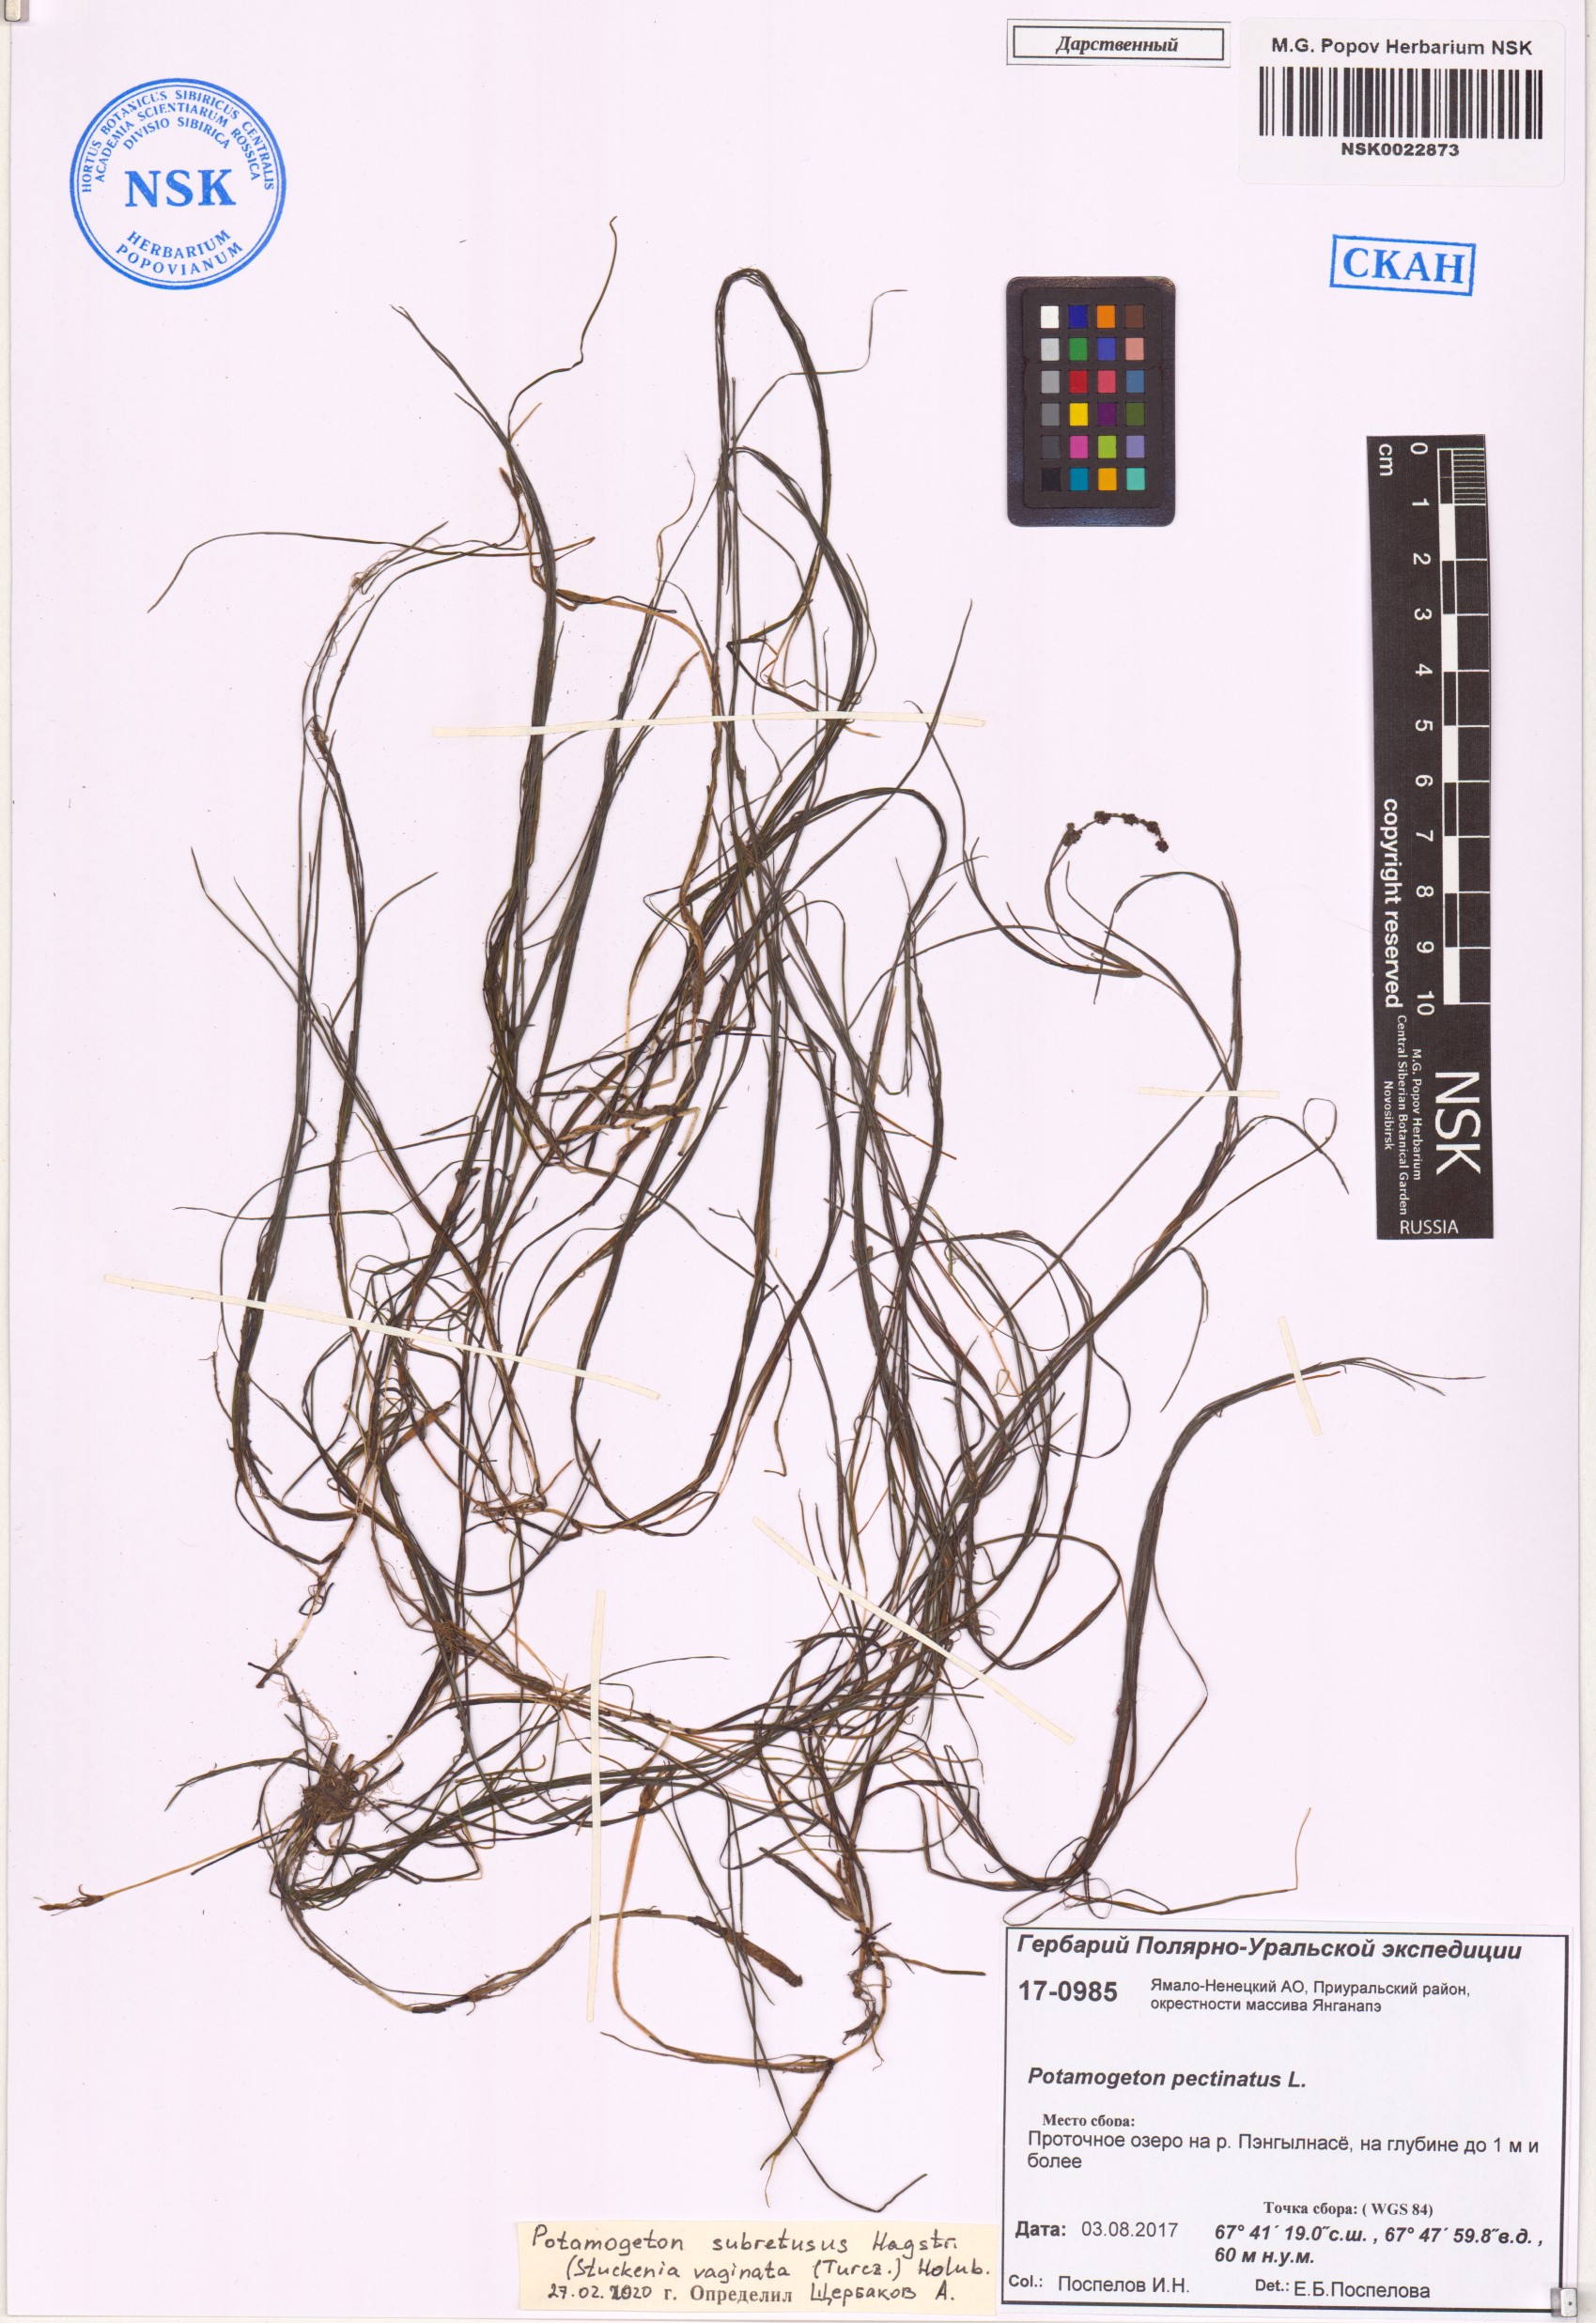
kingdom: Plantae
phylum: Tracheophyta
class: Liliopsida
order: Alismatales
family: Potamogetonaceae
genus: Stuckenia
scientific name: Stuckenia vaginata
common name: Big-sheathed pondweed
